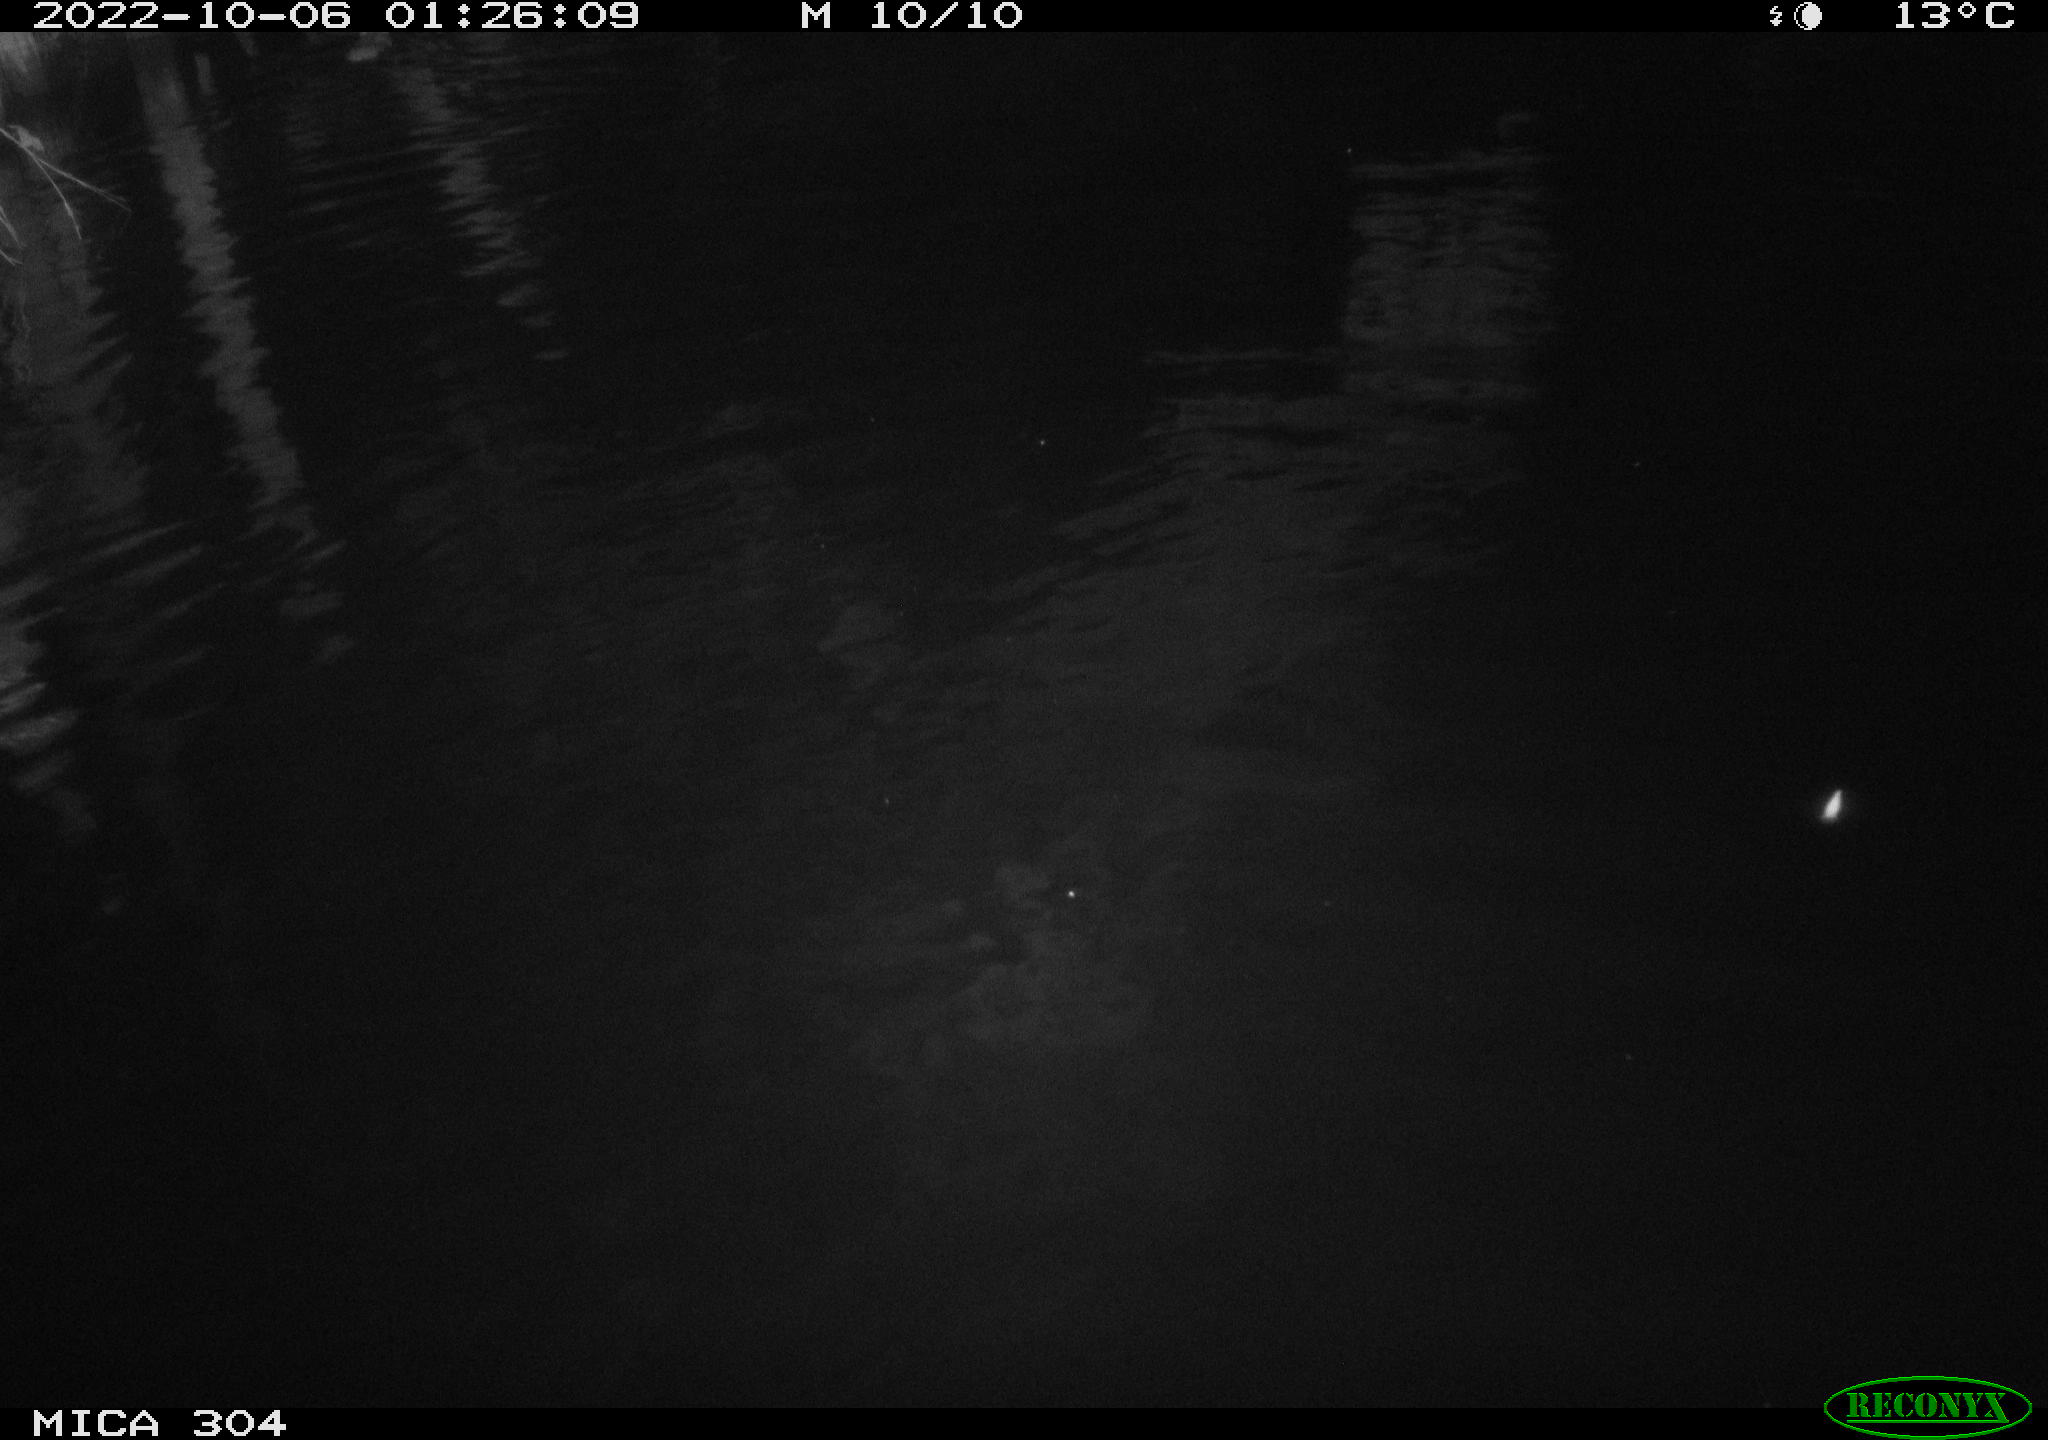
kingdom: Animalia
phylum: Chordata
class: Mammalia
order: Rodentia
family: Muridae
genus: Rattus
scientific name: Rattus norvegicus
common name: Brown rat
